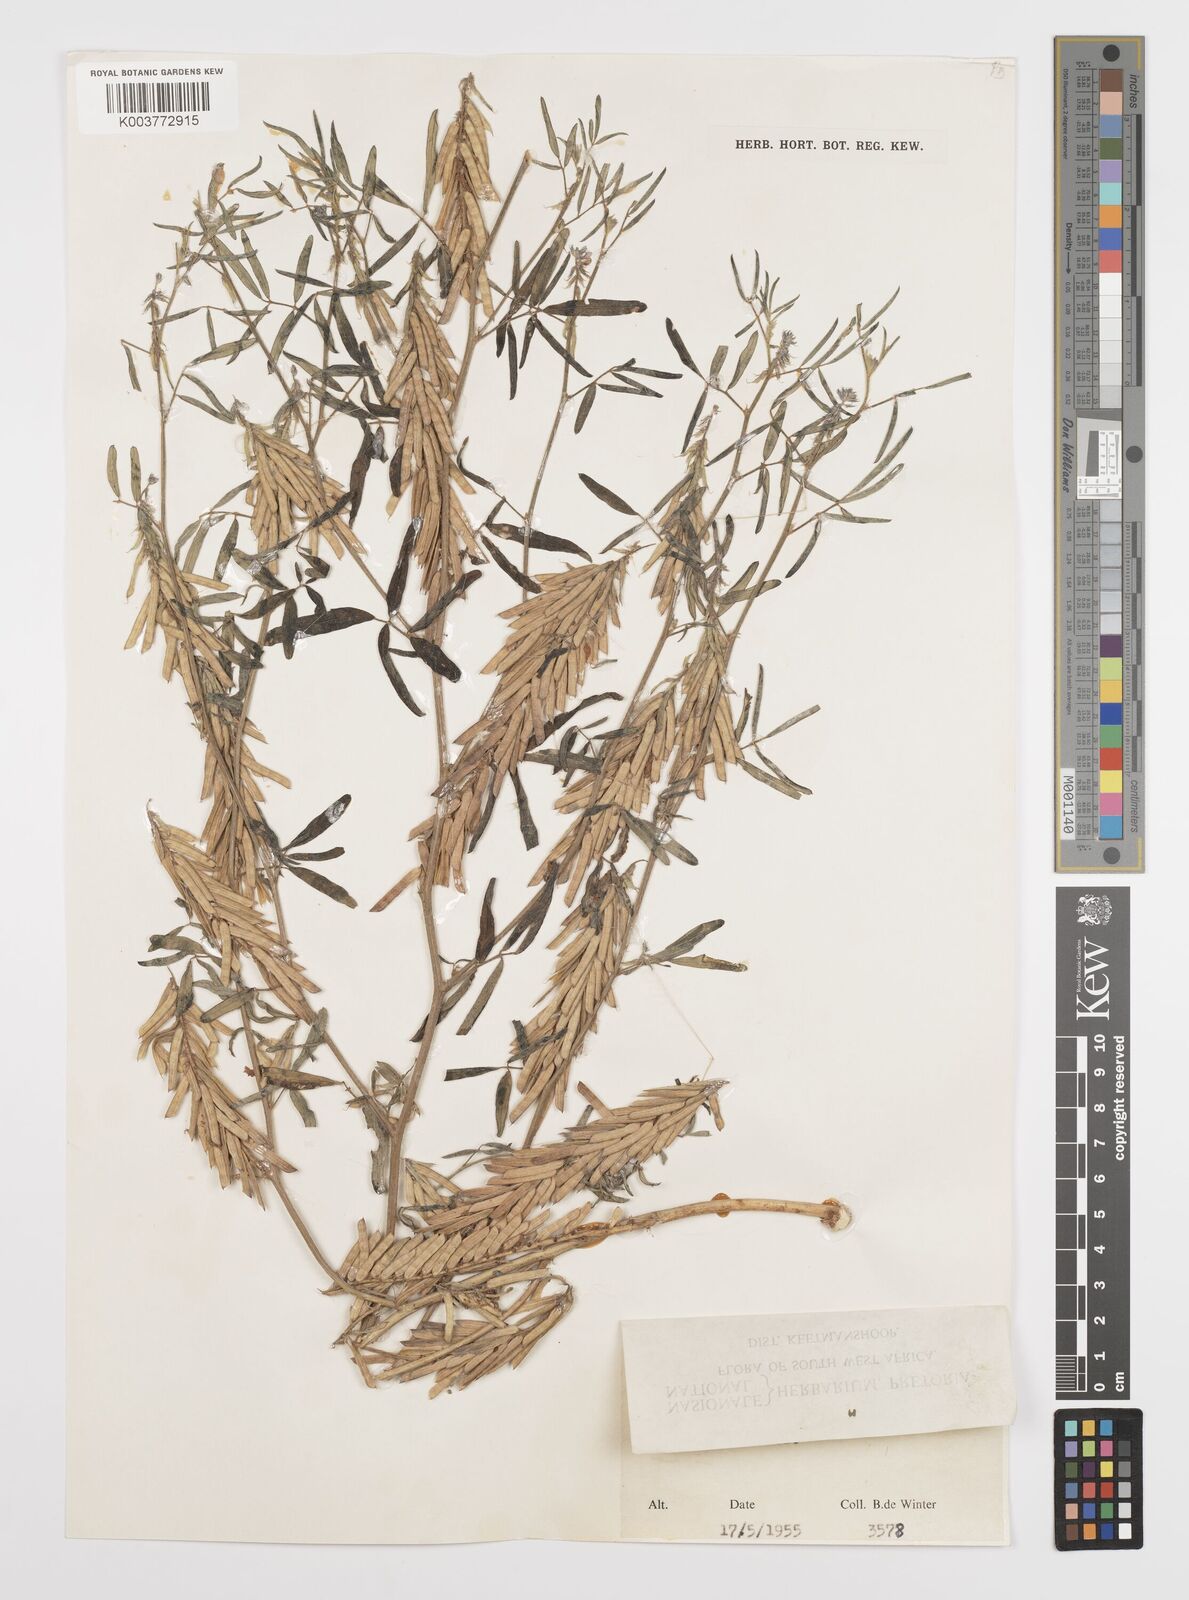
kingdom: Plantae
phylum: Tracheophyta
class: Magnoliopsida
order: Fabales
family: Fabaceae
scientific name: Fabaceae
